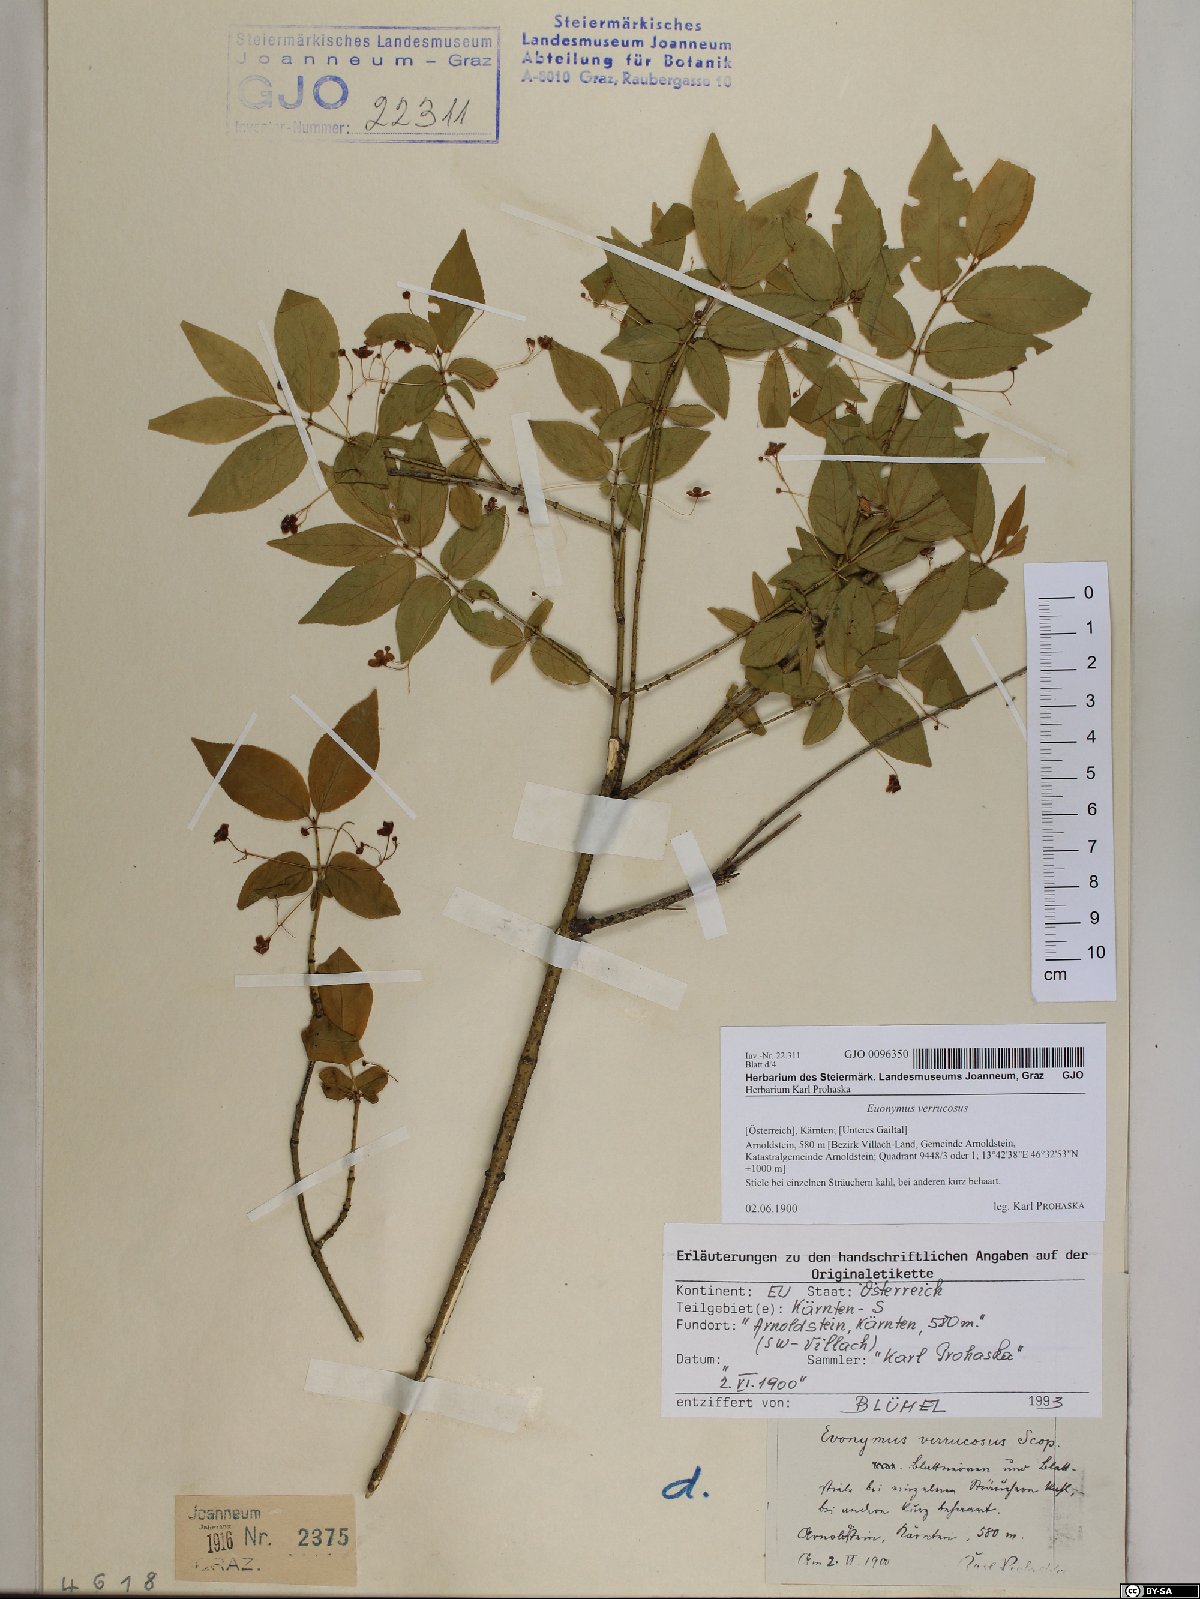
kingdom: Plantae
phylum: Tracheophyta
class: Magnoliopsida
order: Celastrales
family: Celastraceae
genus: Euonymus
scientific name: Euonymus verrucosus
